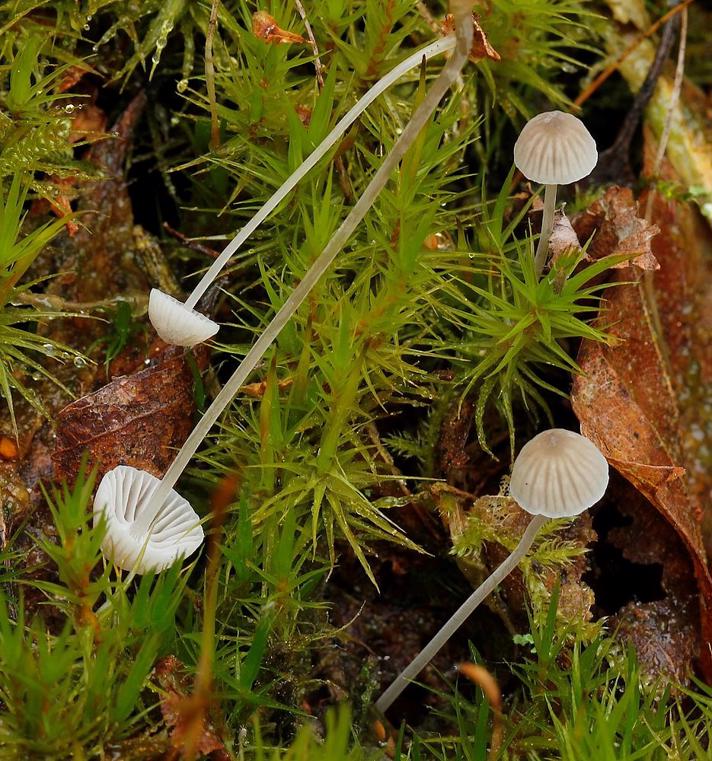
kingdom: Fungi
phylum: Basidiomycota
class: Agaricomycetes
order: Agaricales
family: Mycenaceae
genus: Mycena
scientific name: Mycena cinerella
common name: mel-huesvamp
